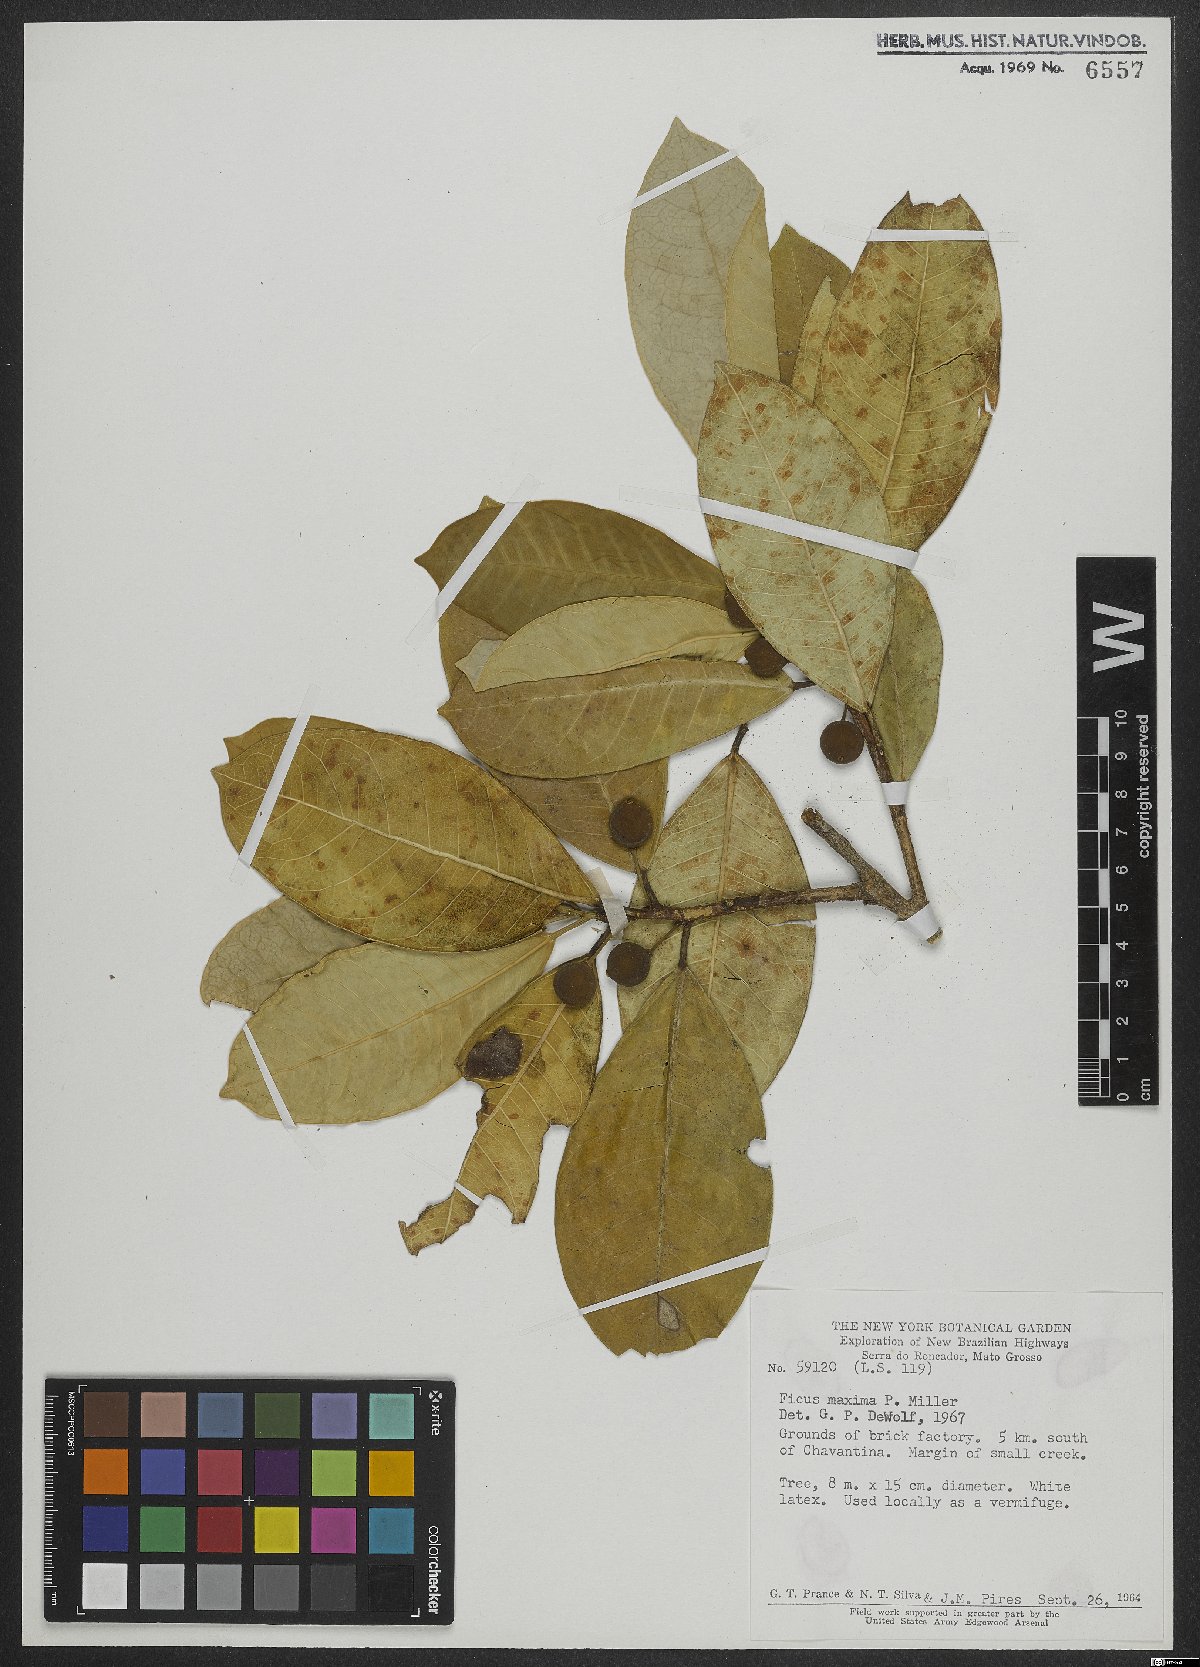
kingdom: Plantae
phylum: Tracheophyta
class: Magnoliopsida
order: Rosales
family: Moraceae
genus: Ficus
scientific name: Ficus maxima
